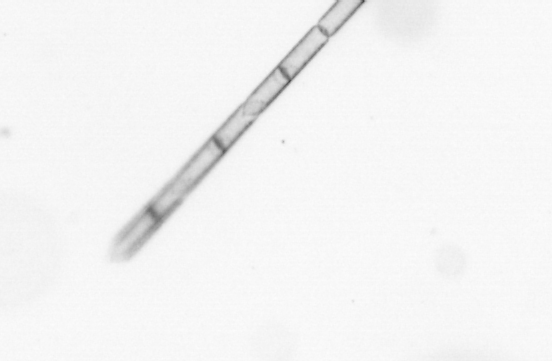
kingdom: Chromista
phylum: Ochrophyta
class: Bacillariophyceae
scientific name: Bacillariophyceae
